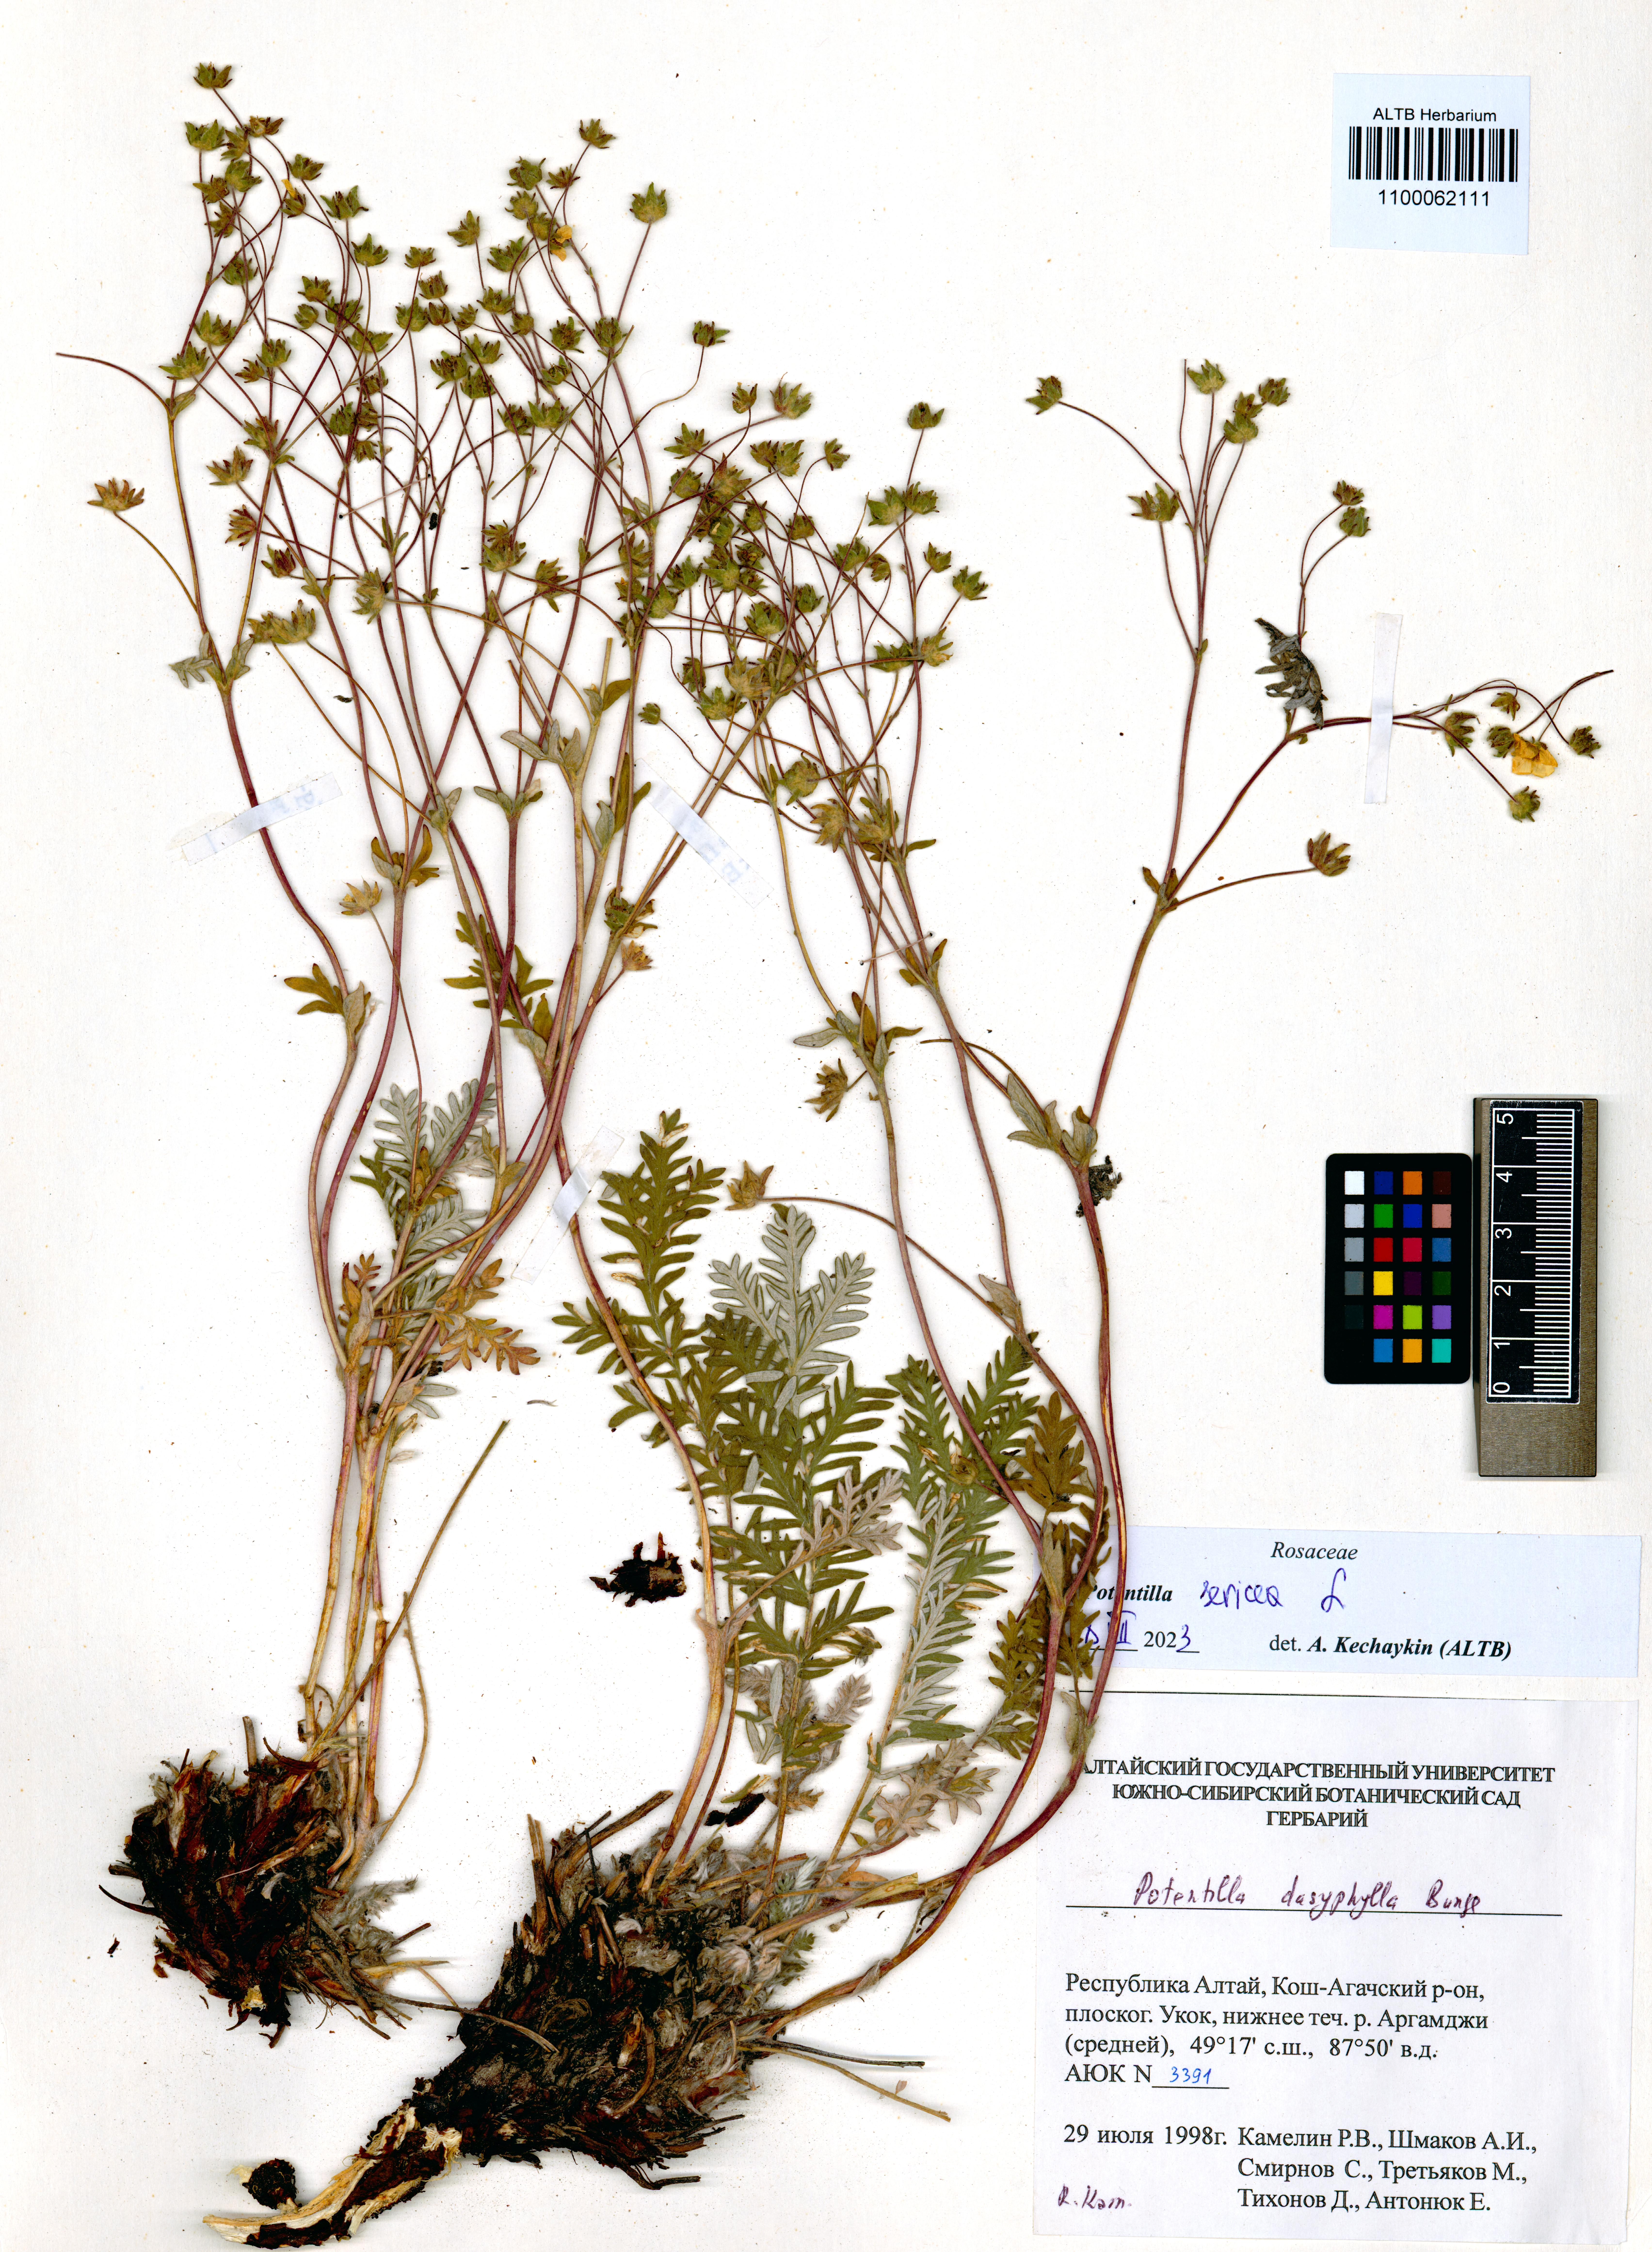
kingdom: Plantae
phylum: Tracheophyta
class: Magnoliopsida
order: Rosales
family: Rosaceae
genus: Potentilla
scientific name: Potentilla sericea
